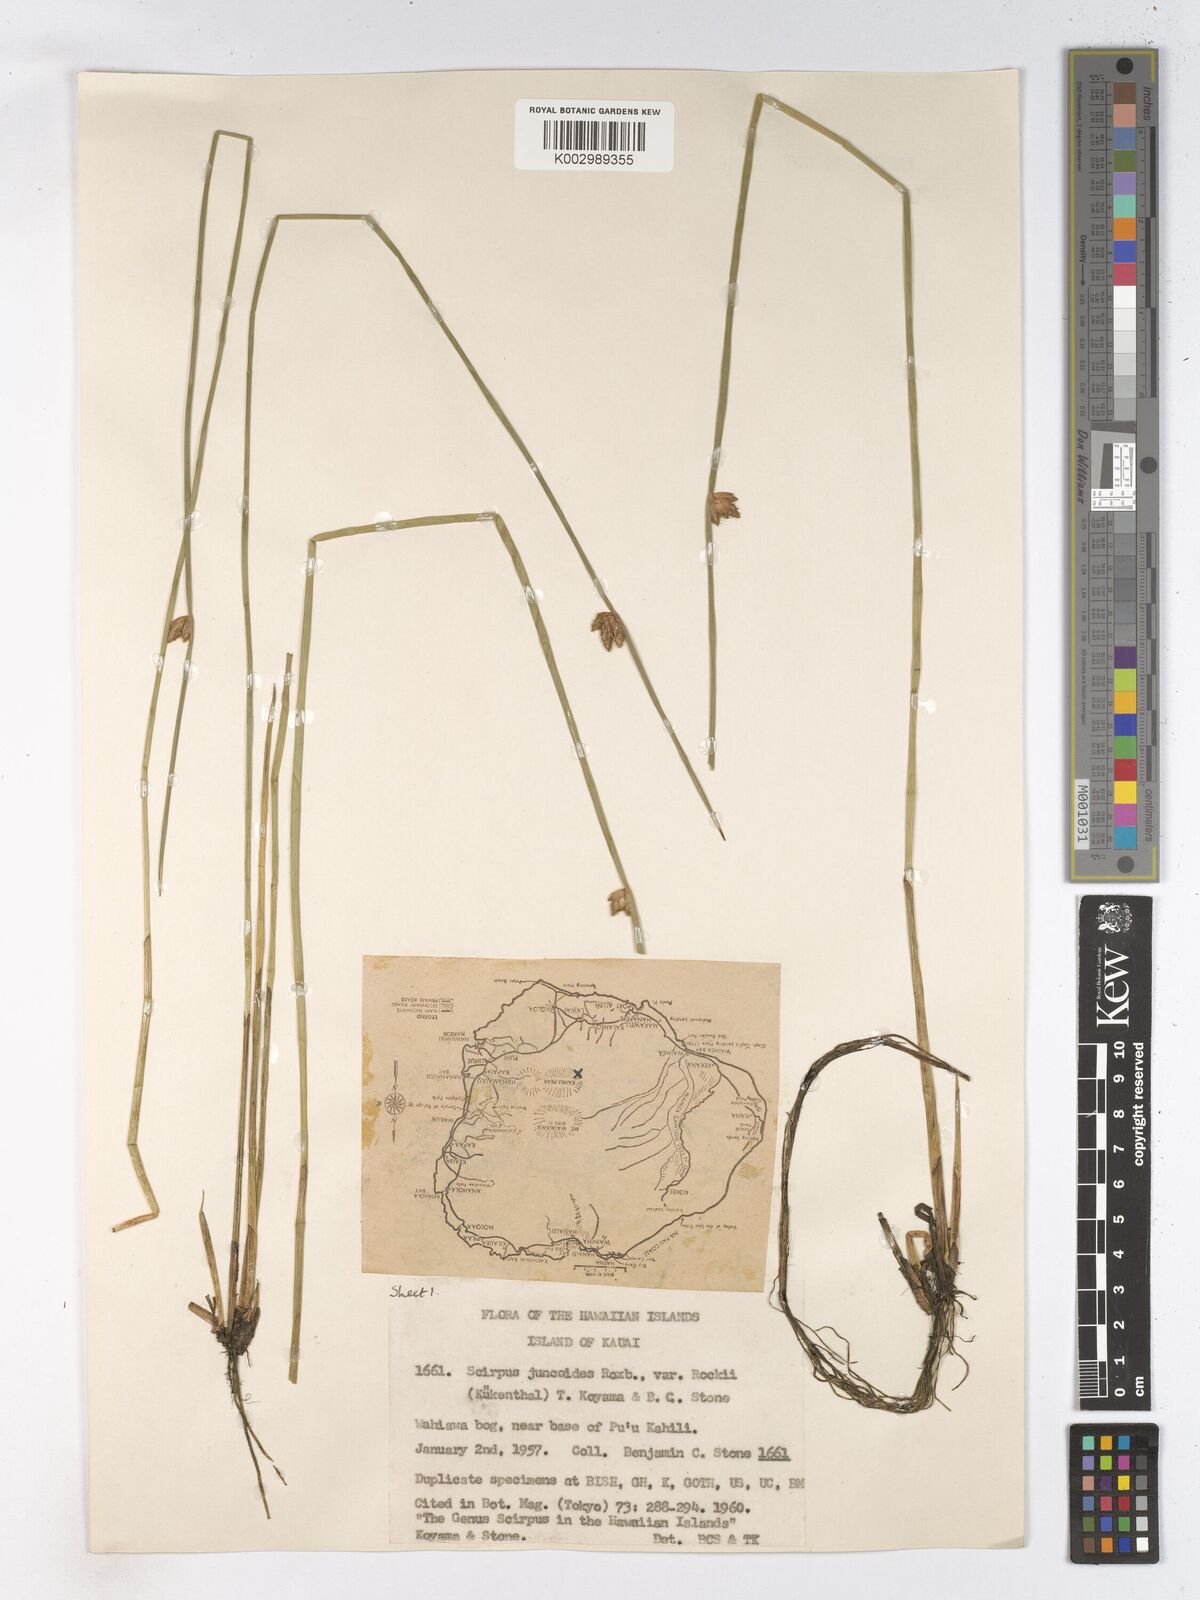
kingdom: Plantae
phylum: Tracheophyta
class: Liliopsida
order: Poales
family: Cyperaceae
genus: Schoenoplectiella
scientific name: Schoenoplectiella juncoides
